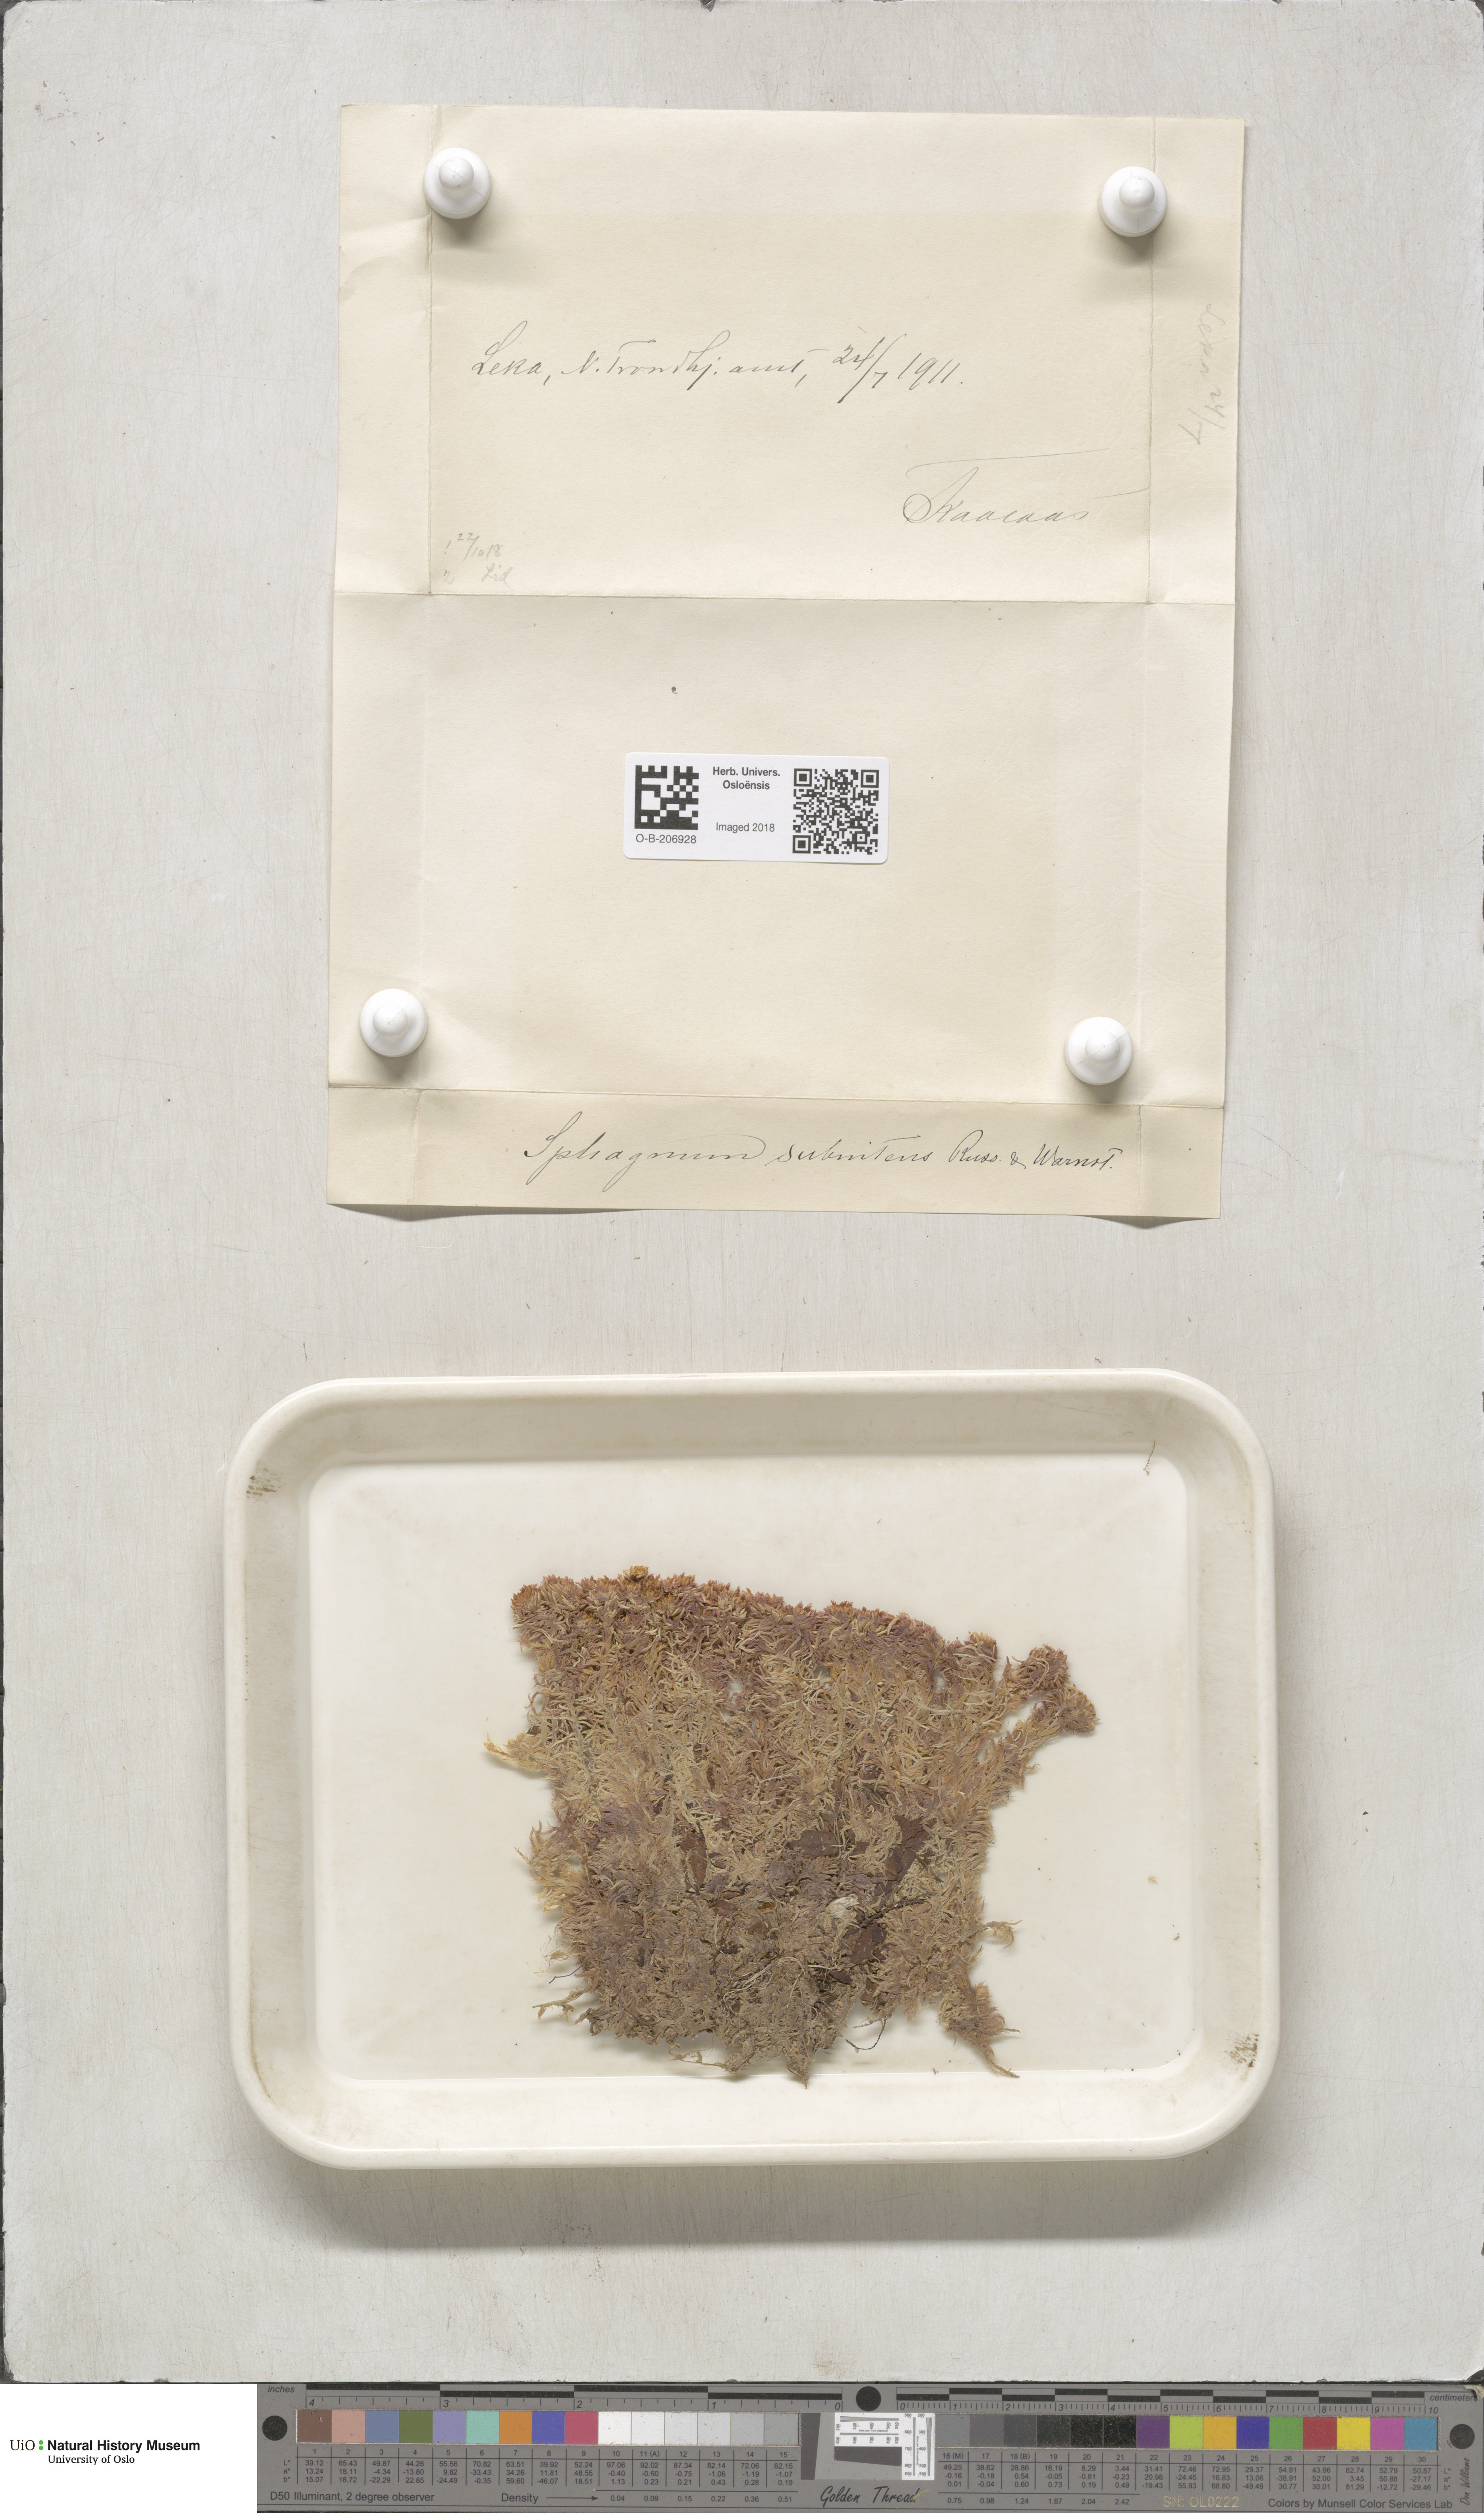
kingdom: Plantae
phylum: Bryophyta
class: Sphagnopsida
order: Sphagnales
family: Sphagnaceae
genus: Sphagnum
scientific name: Sphagnum subnitens
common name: Lustrous bog-moss
